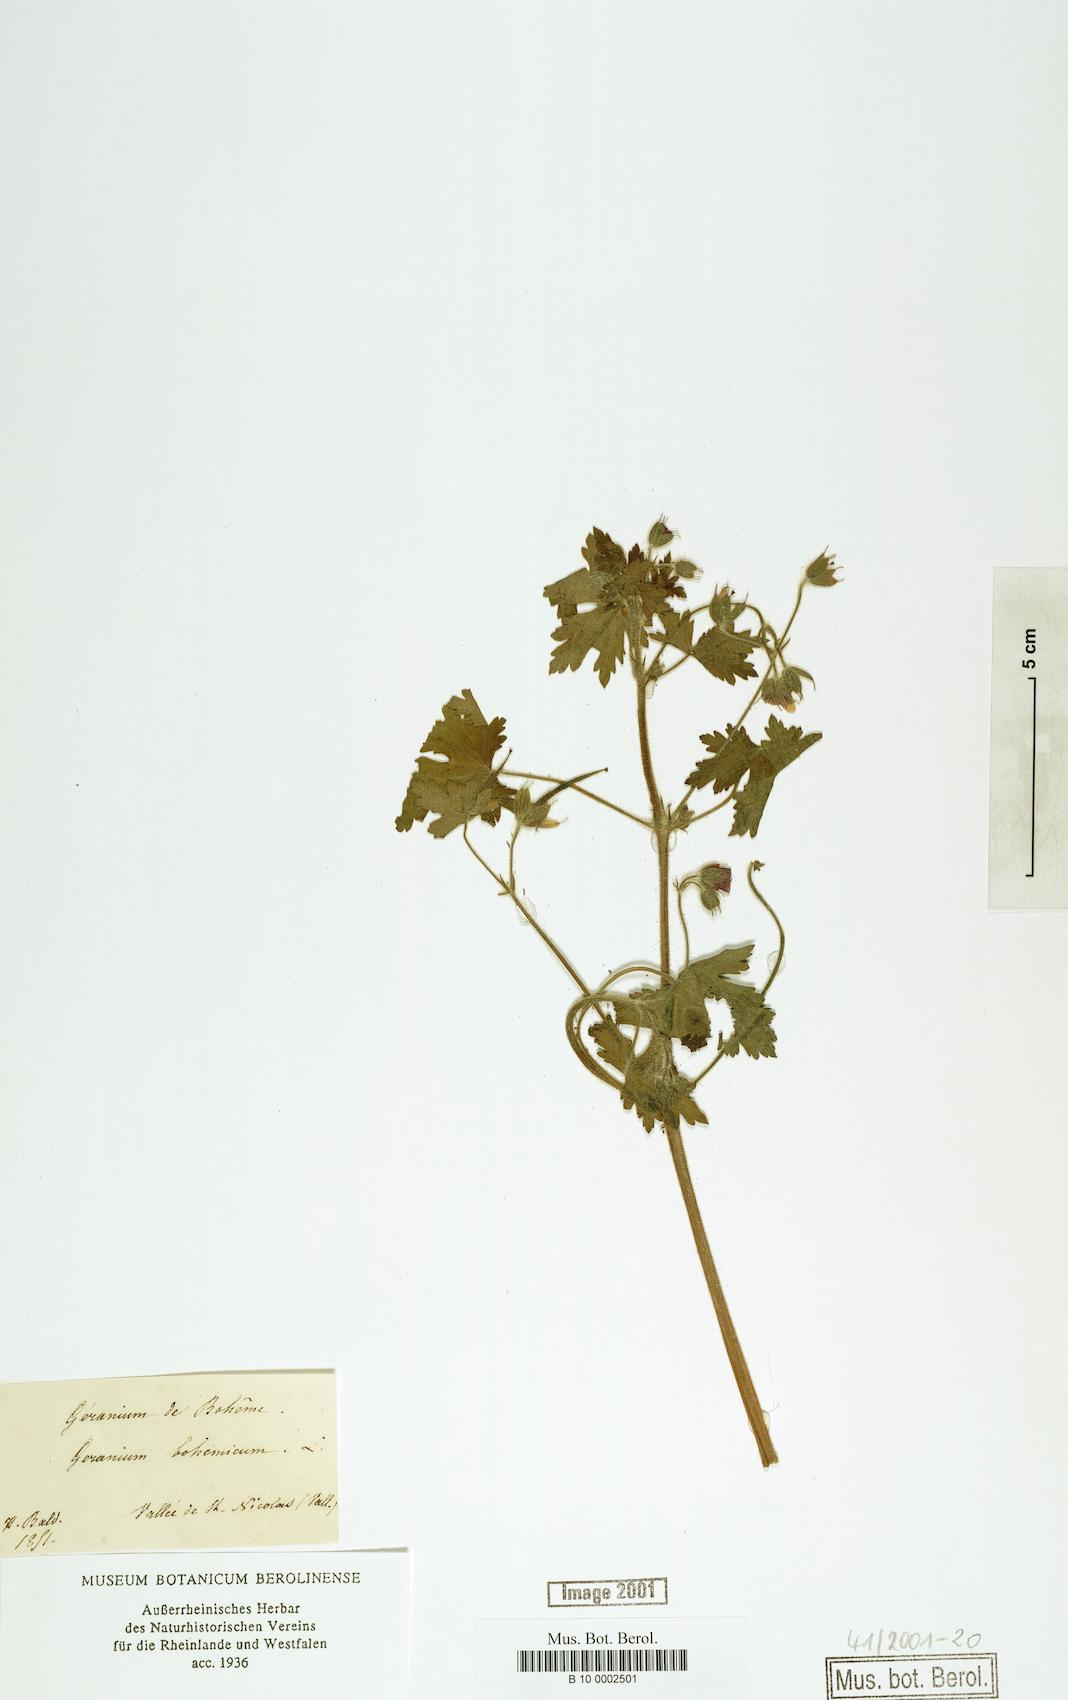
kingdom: Plantae
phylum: Tracheophyta
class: Magnoliopsida
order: Geraniales
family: Geraniaceae
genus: Geranium
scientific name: Geranium bohemicum
